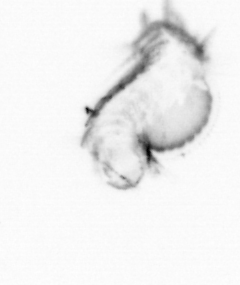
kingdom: Animalia
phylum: Annelida
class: Polychaeta
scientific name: Polychaeta
